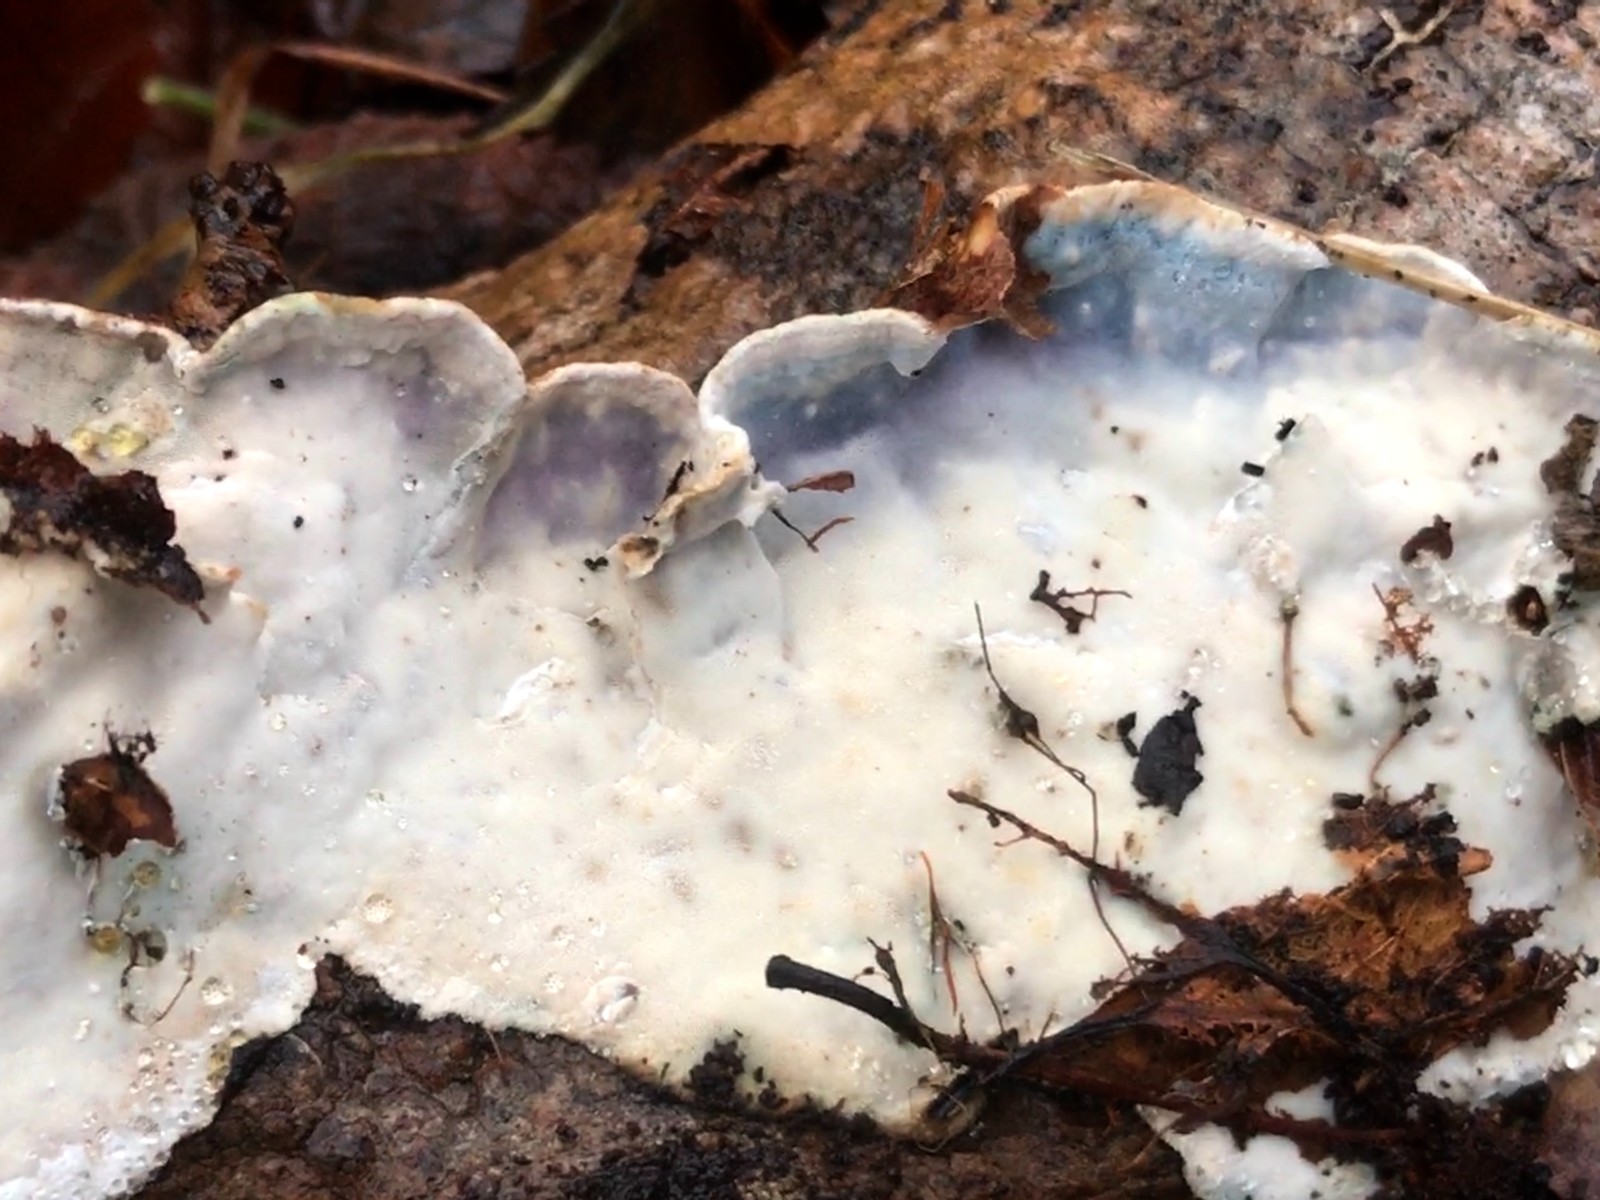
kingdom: Fungi
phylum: Basidiomycota
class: Agaricomycetes
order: Polyporales
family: Incrustoporiaceae
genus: Skeletocutis
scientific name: Skeletocutis nemoralis
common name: stor krystalporesvamp
